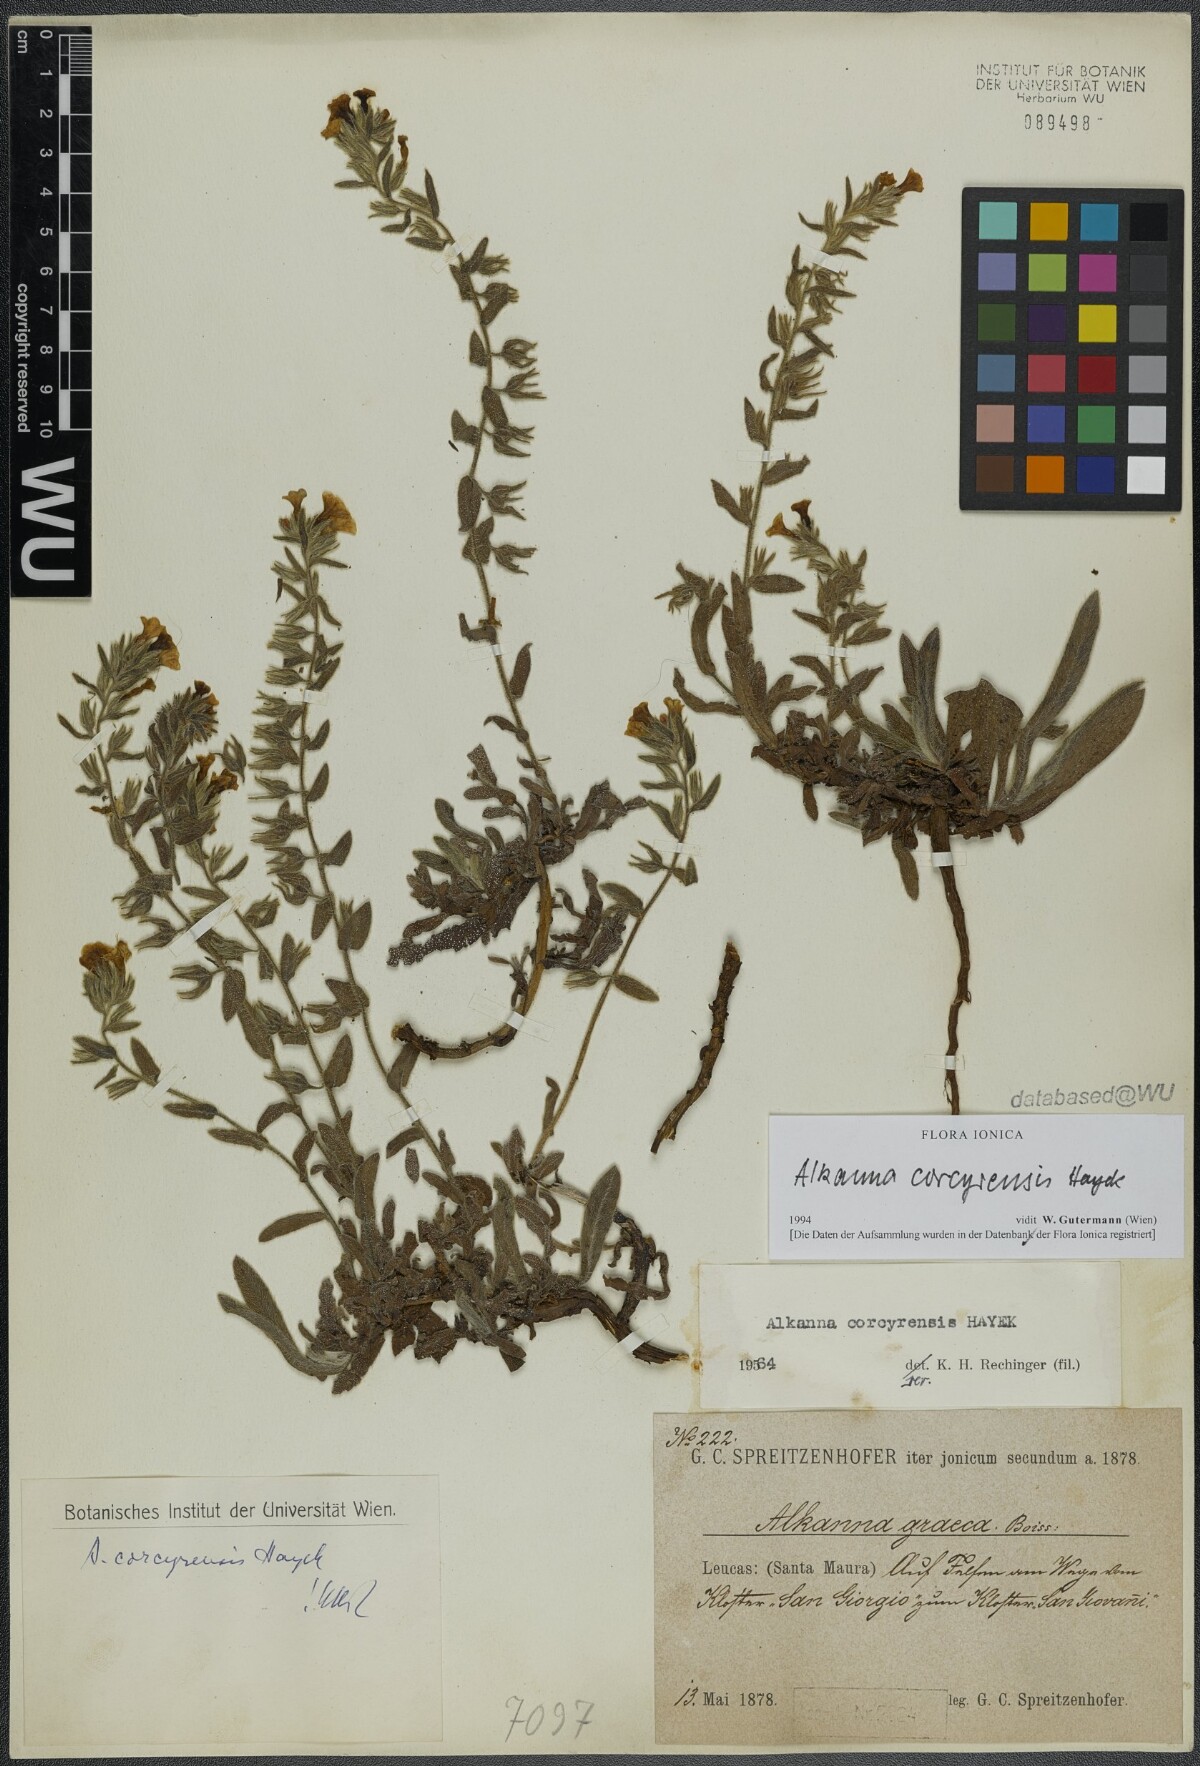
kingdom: Plantae
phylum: Tracheophyta
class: Magnoliopsida
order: Boraginales
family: Boraginaceae
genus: Alkanna
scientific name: Alkanna corcyrensis
